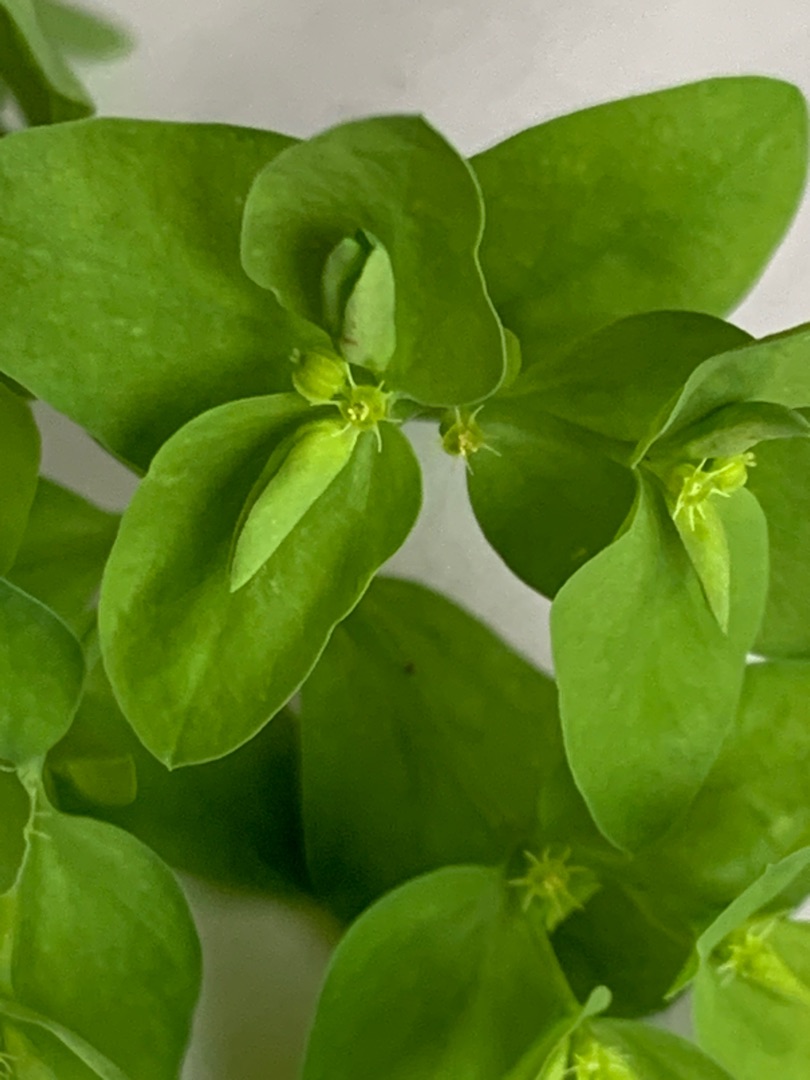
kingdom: Plantae
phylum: Tracheophyta
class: Magnoliopsida
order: Malpighiales
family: Euphorbiaceae
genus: Euphorbia
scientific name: Euphorbia peplus
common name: Gaffel-vortemælk
